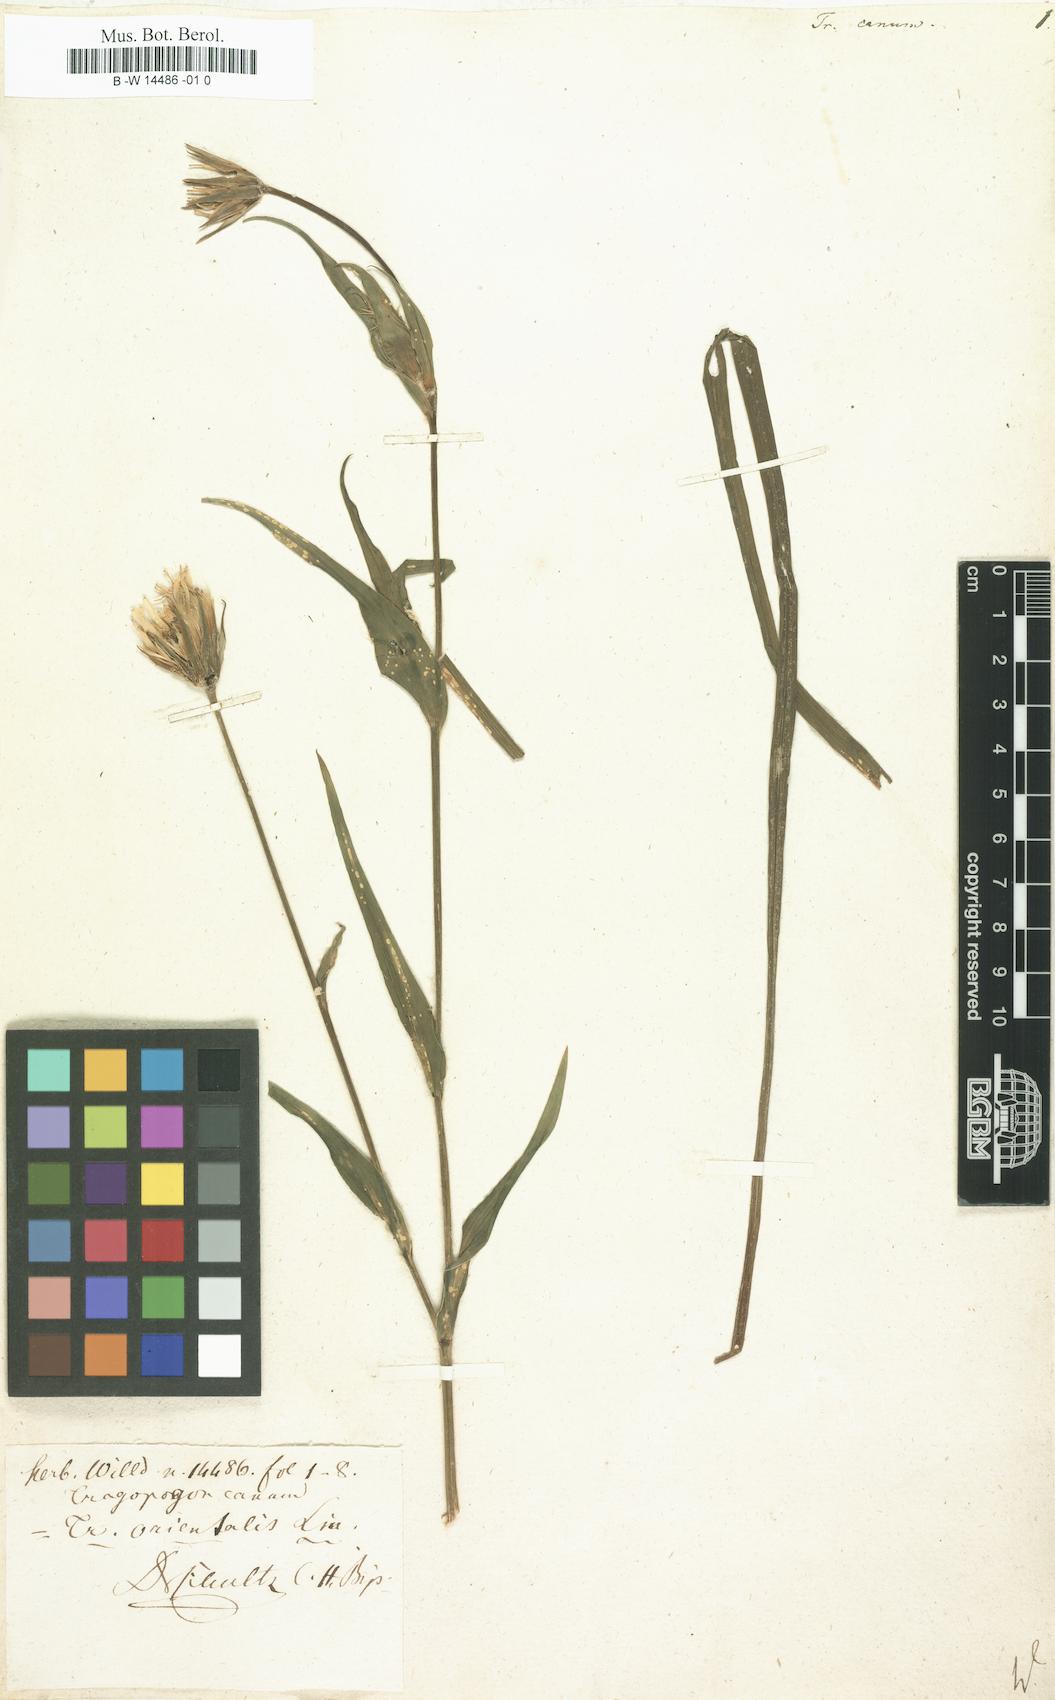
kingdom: Plantae
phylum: Tracheophyta
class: Magnoliopsida
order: Asterales
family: Asteraceae
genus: Tragopogon
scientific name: Tragopogon floccosus
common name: Woolly goatsbeard
